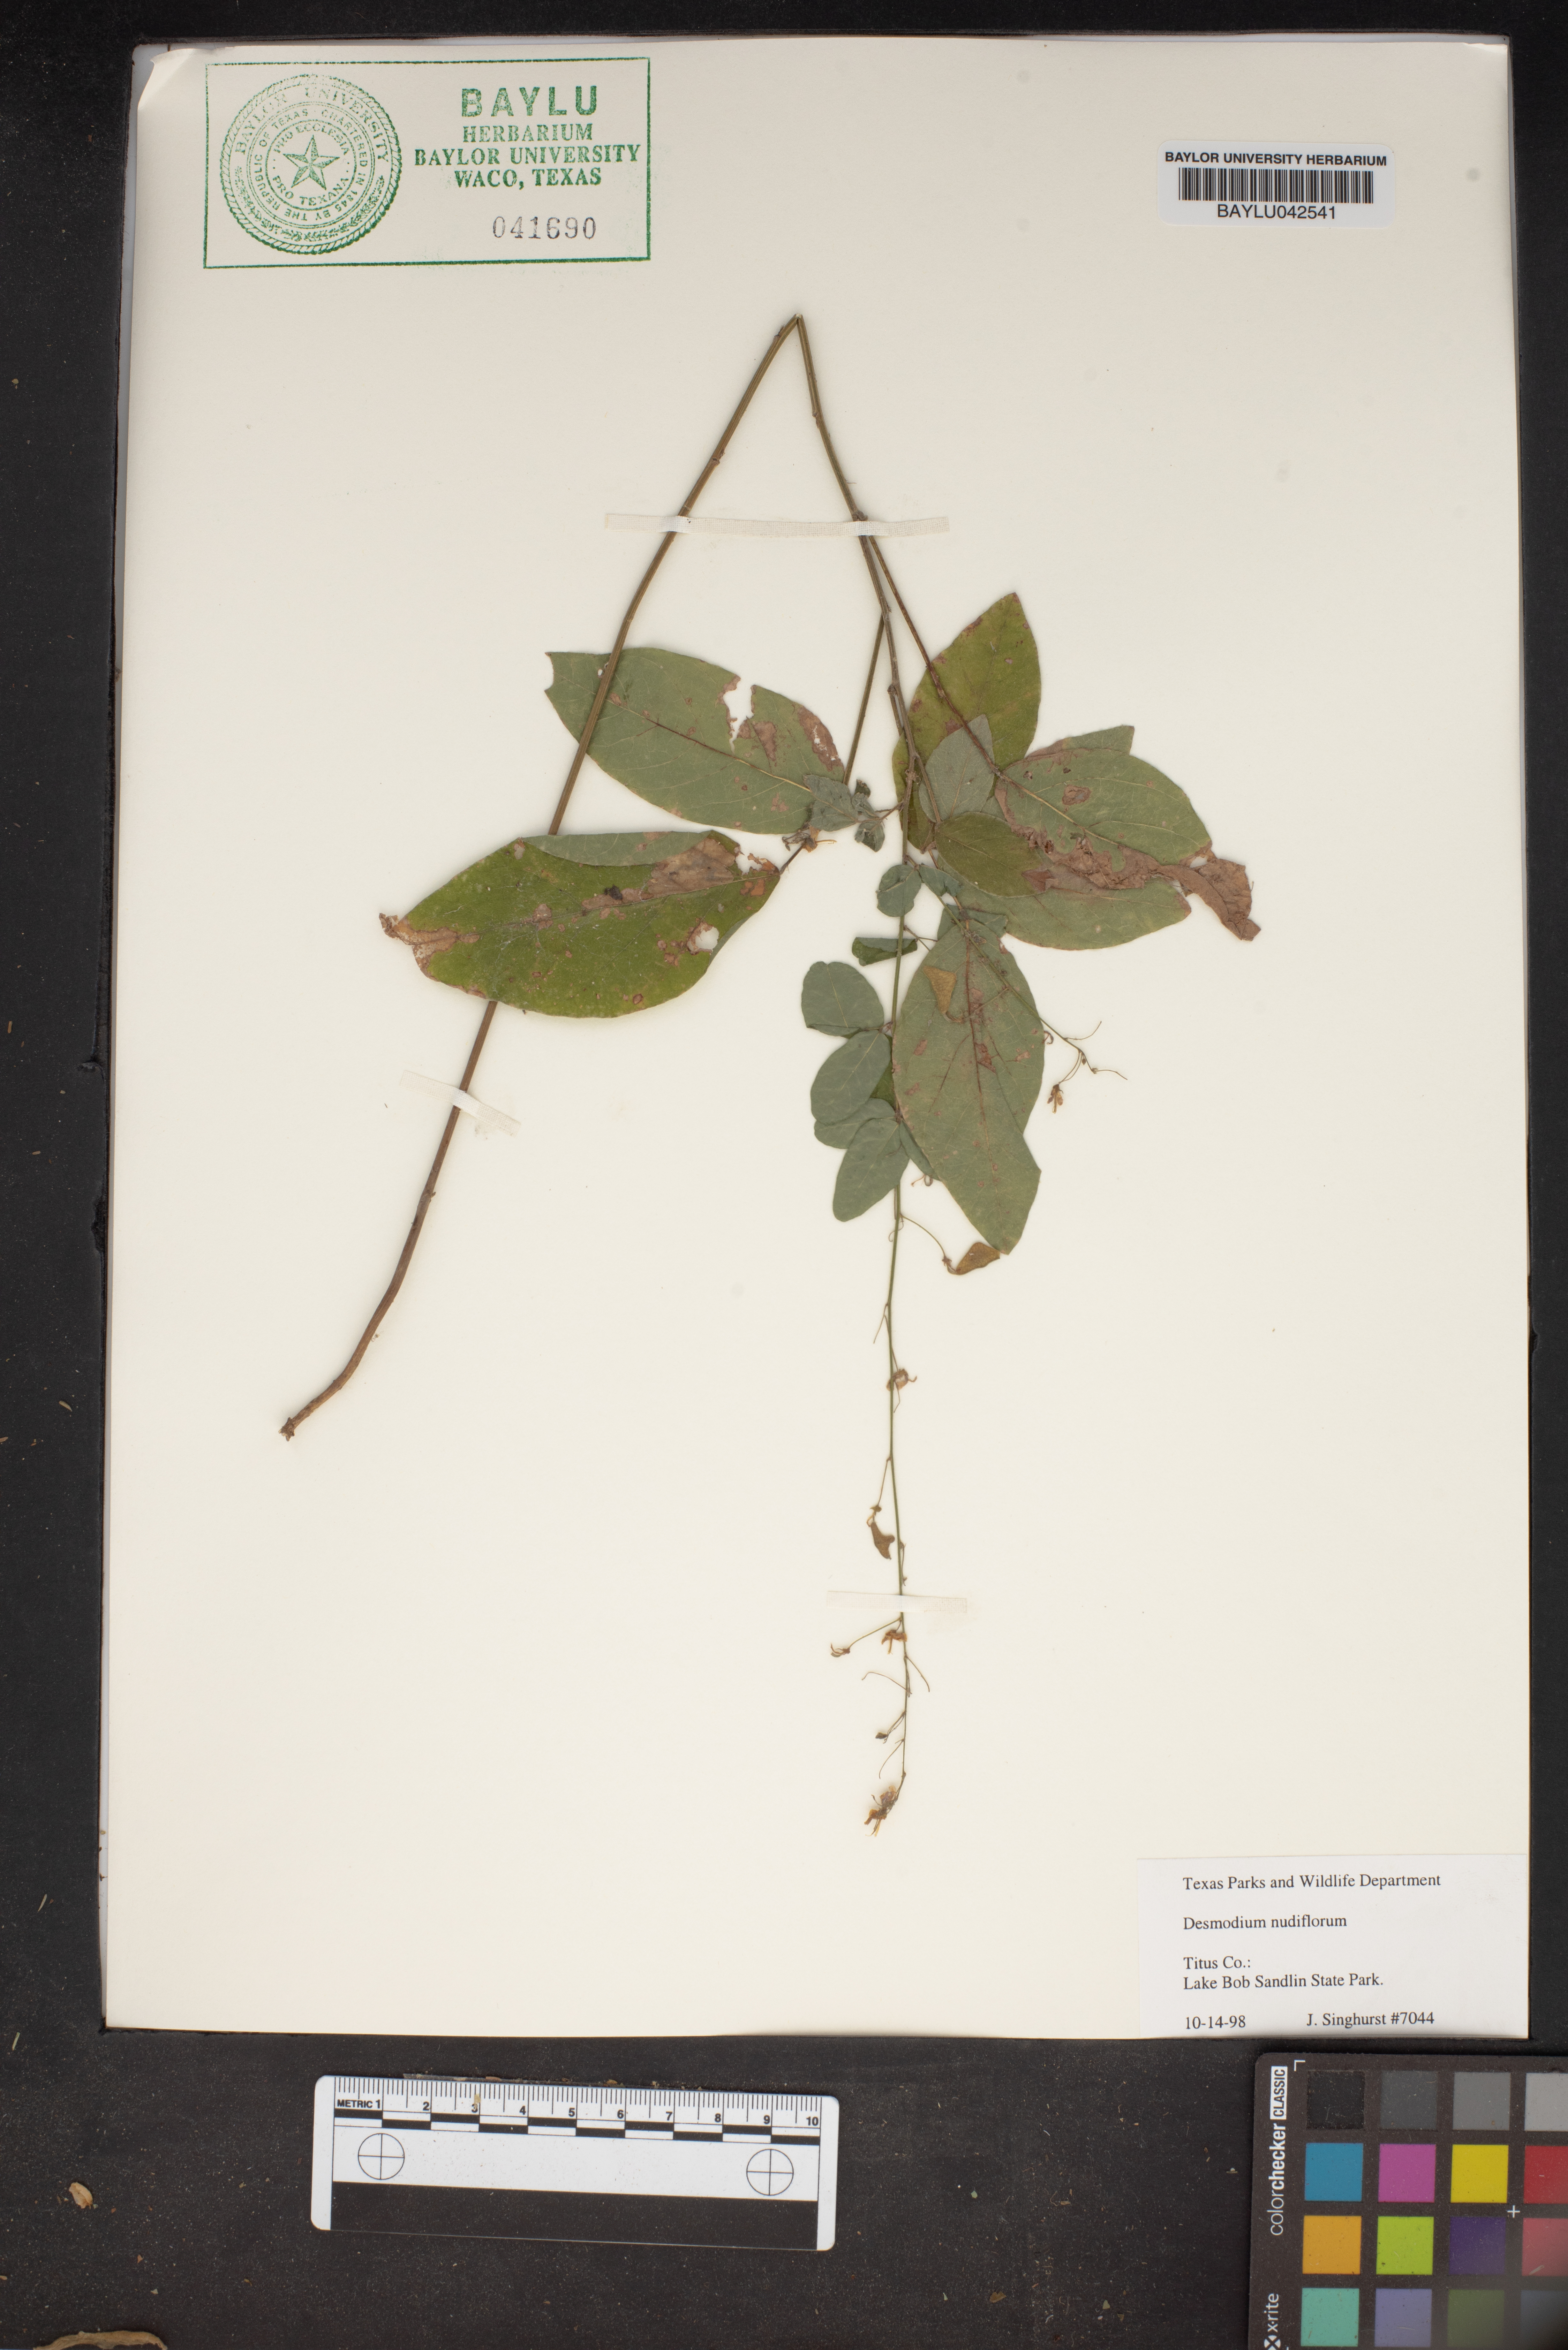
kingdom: Plantae
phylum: Tracheophyta
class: Magnoliopsida
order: Fabales
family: Fabaceae
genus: Hylodesmum
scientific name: Hylodesmum nudiflorum
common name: Bare-stemmed tick-trefoil
